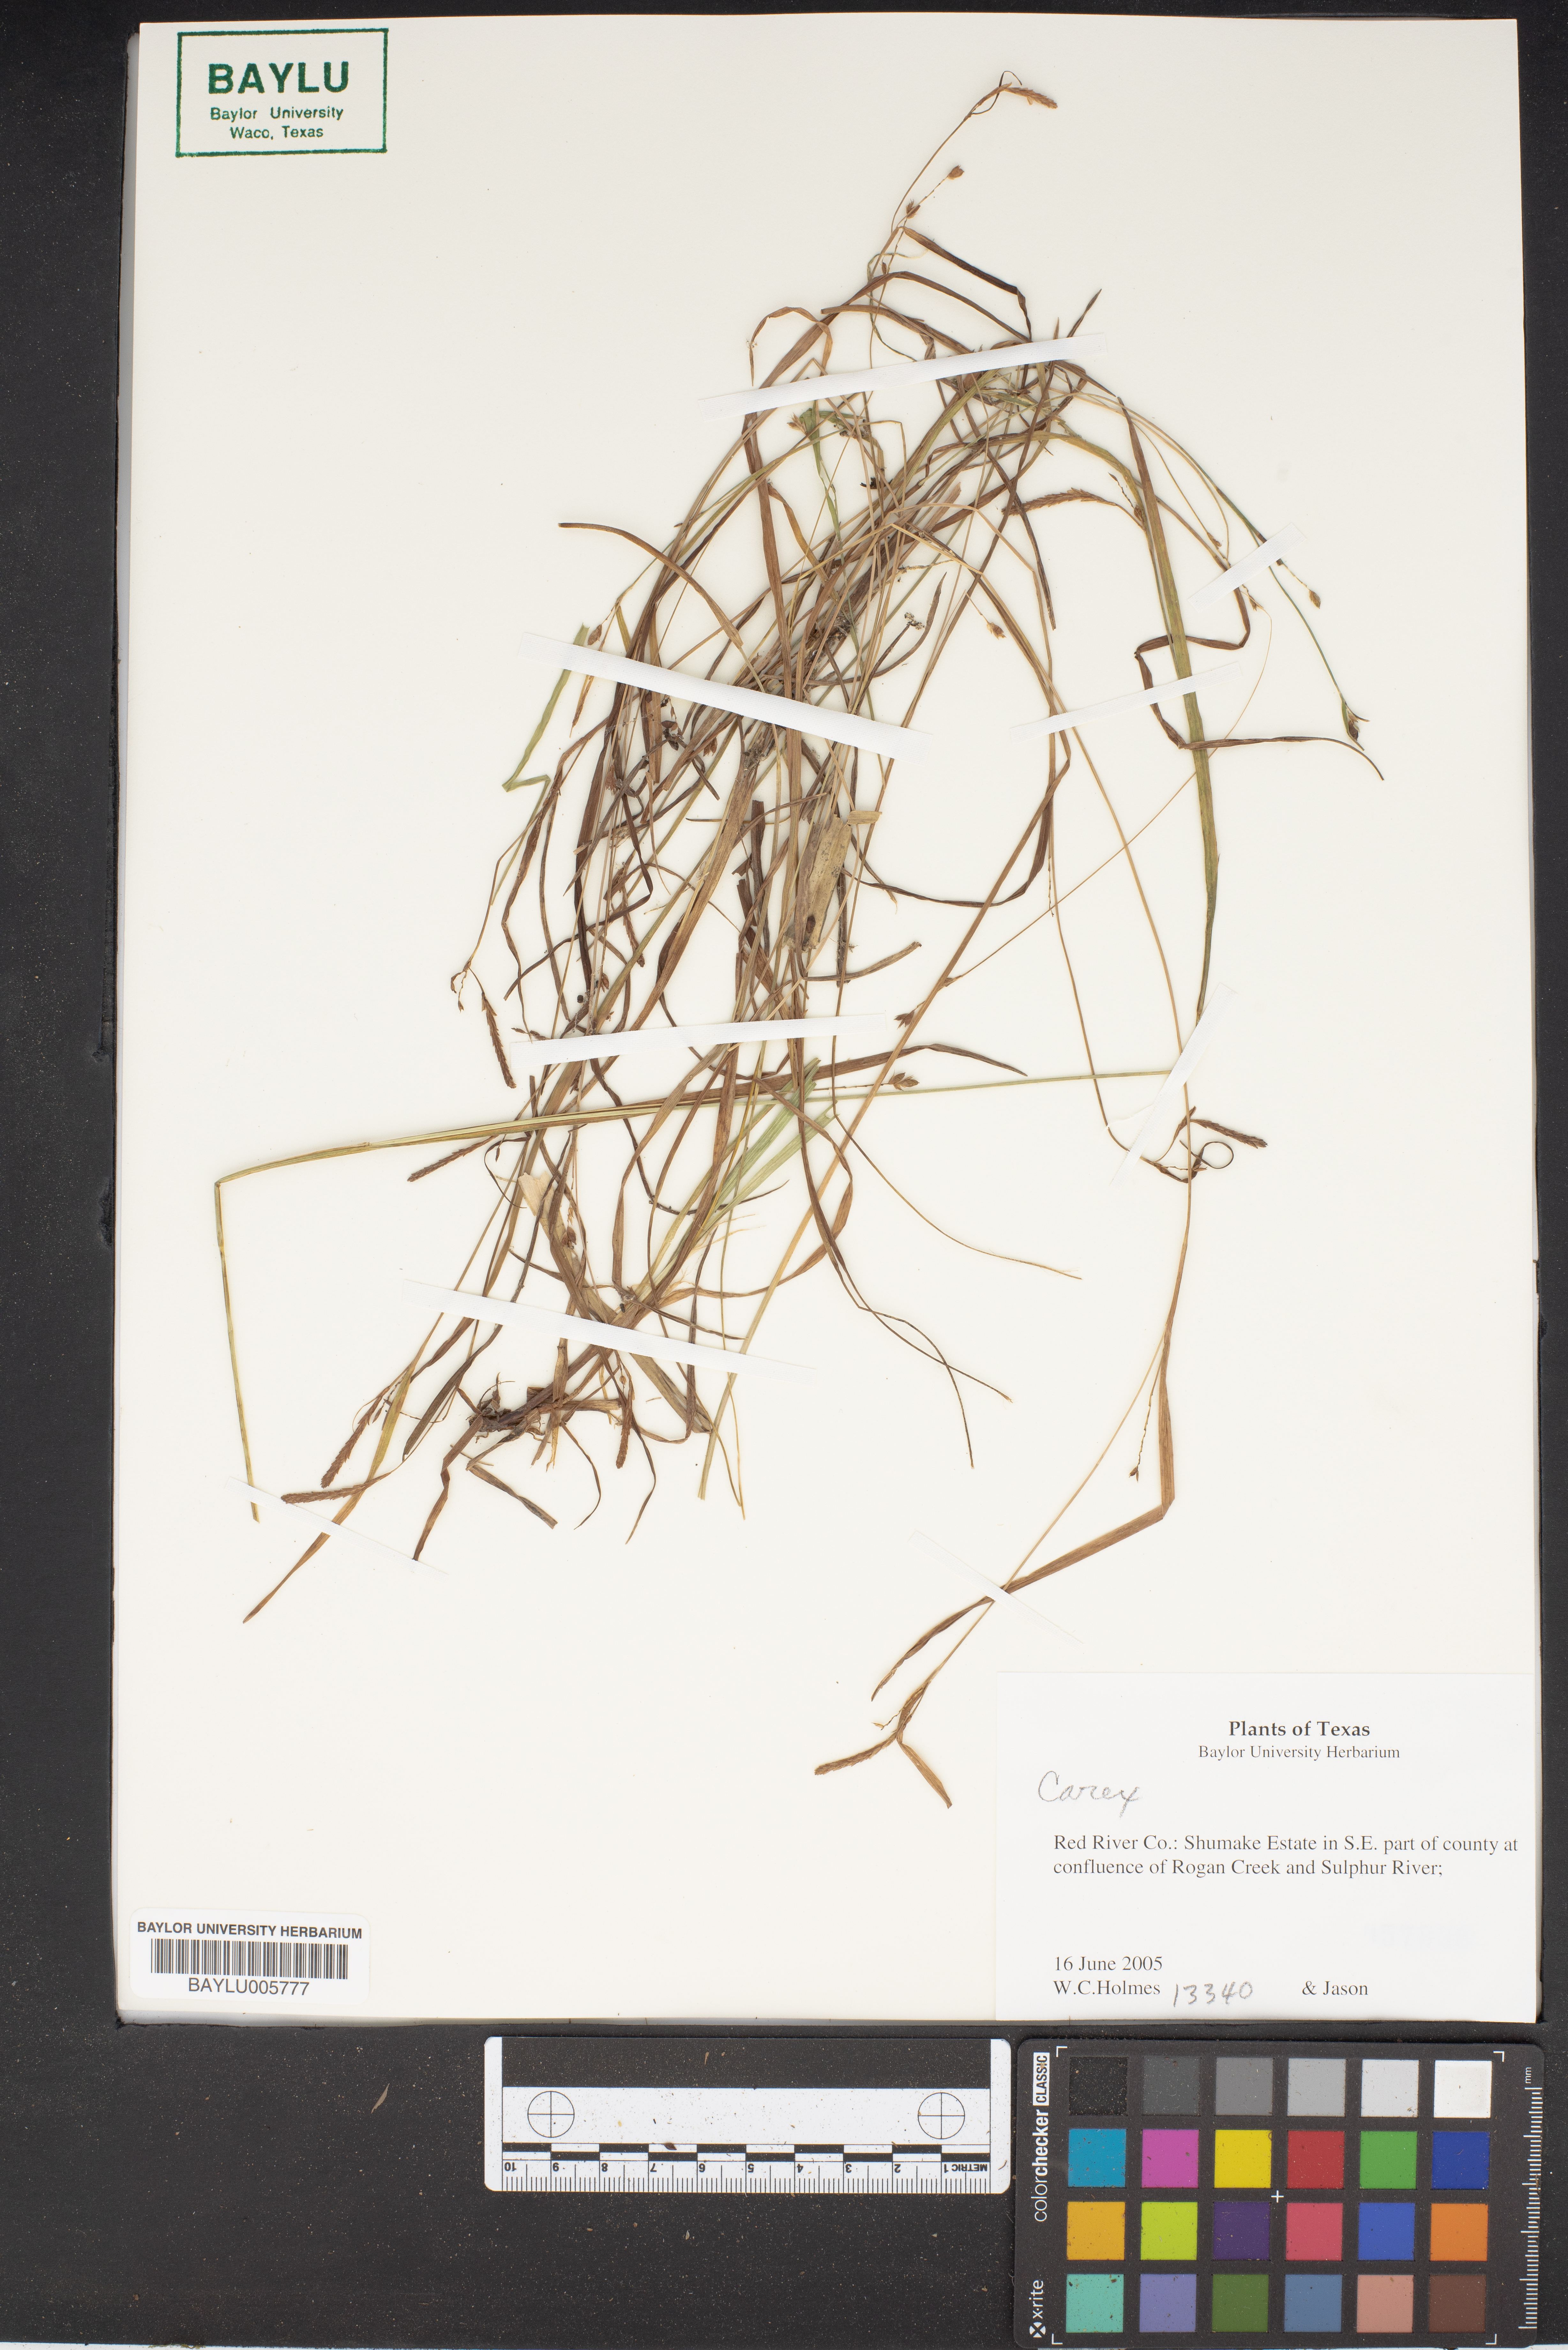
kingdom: Plantae
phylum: Tracheophyta
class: Liliopsida
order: Poales
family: Cyperaceae
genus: Carex
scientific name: Carex
